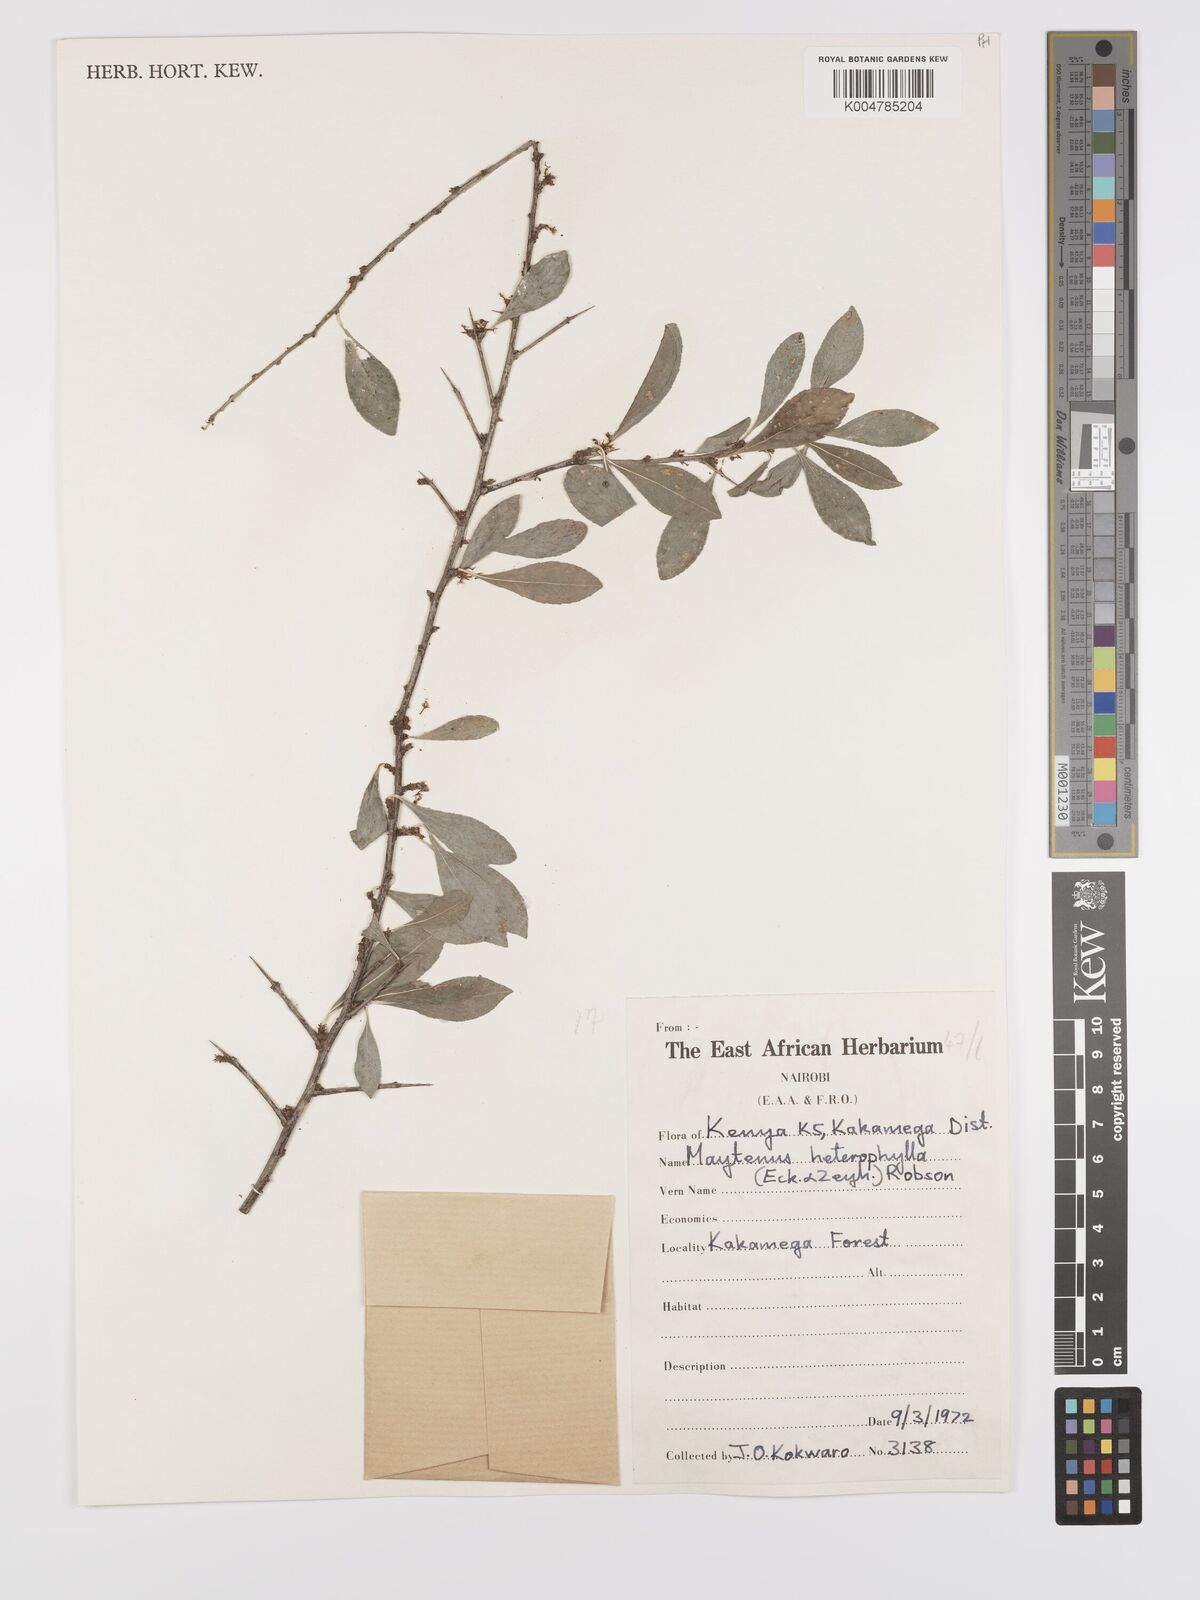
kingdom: Plantae
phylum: Tracheophyta
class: Magnoliopsida
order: Celastrales
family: Celastraceae
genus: Gymnosporia
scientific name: Gymnosporia heterophylla
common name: Angle-stem spikethorn
